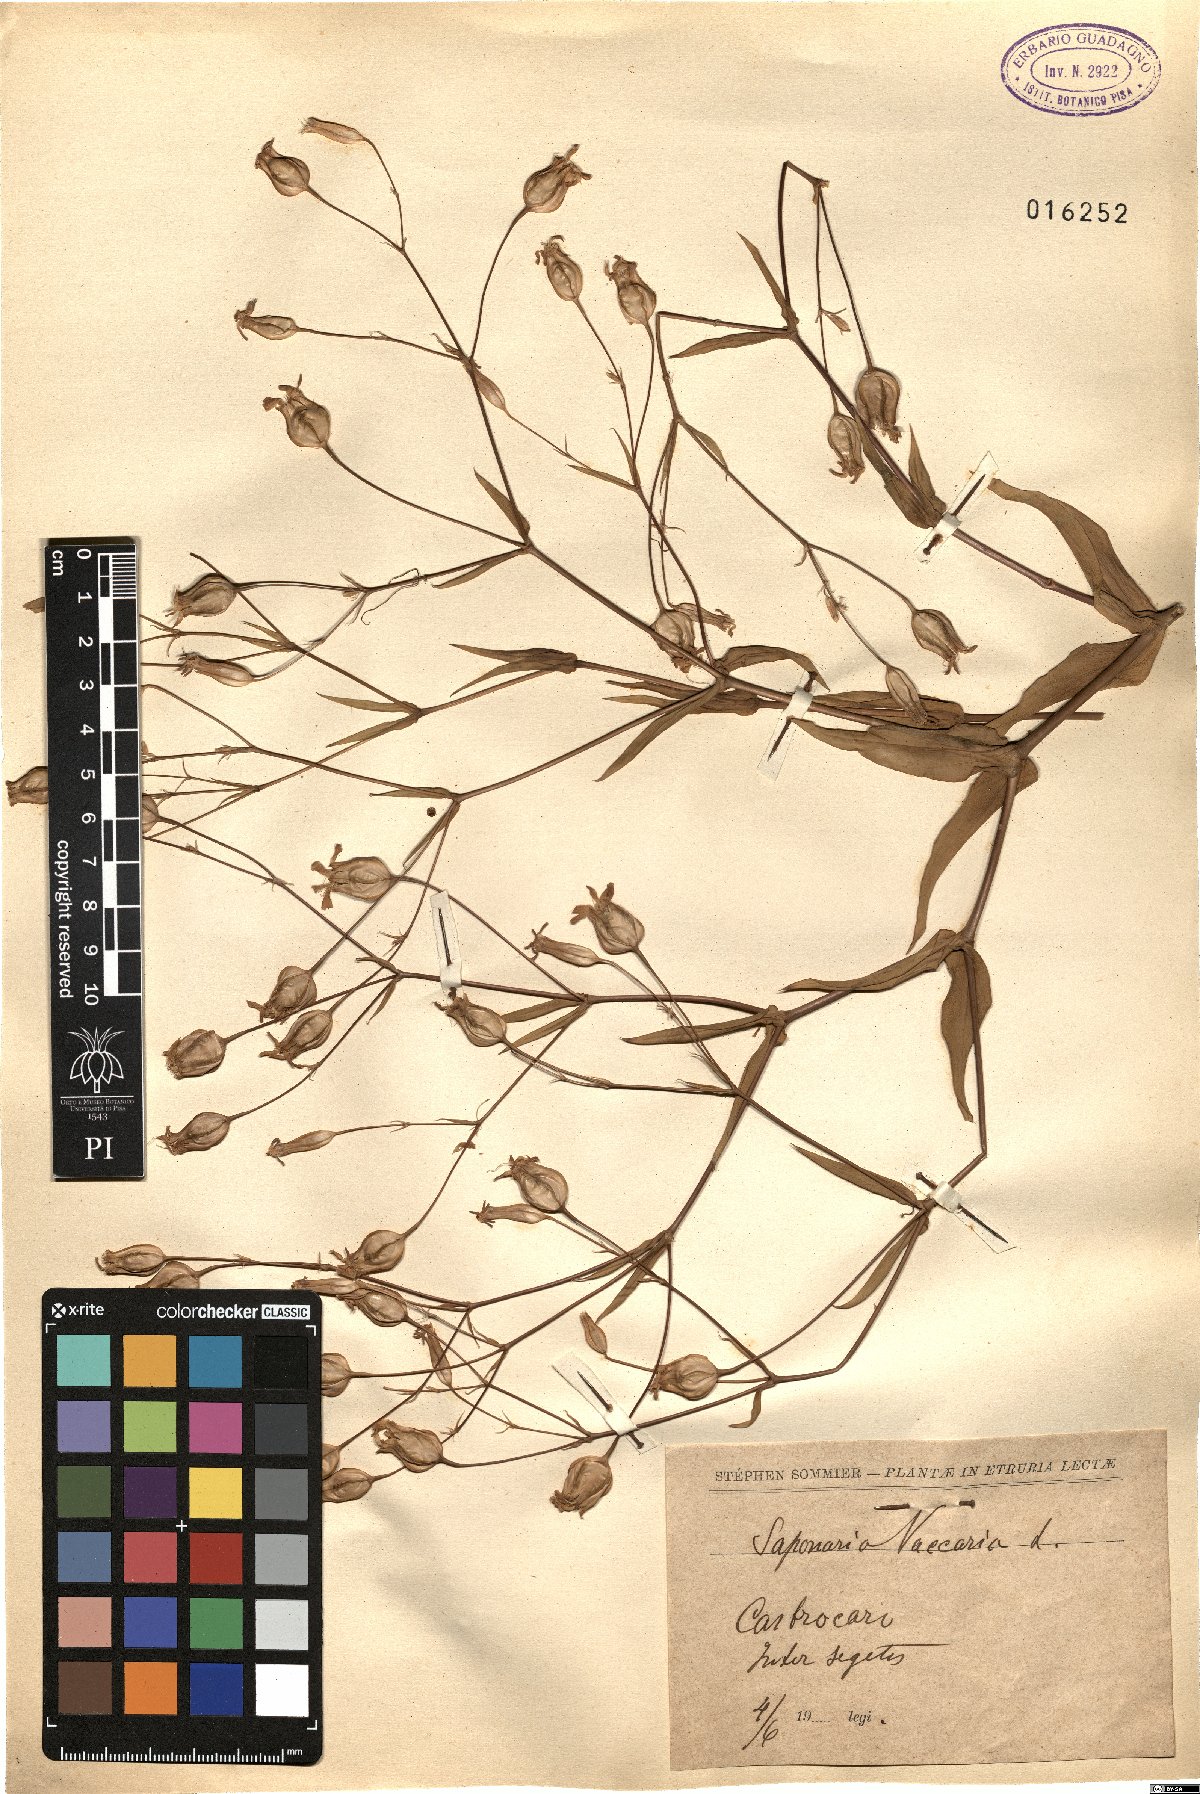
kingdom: Plantae
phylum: Tracheophyta
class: Magnoliopsida
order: Caryophyllales
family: Caryophyllaceae
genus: Gypsophila
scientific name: Gypsophila vaccaria
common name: Cow soapwort
